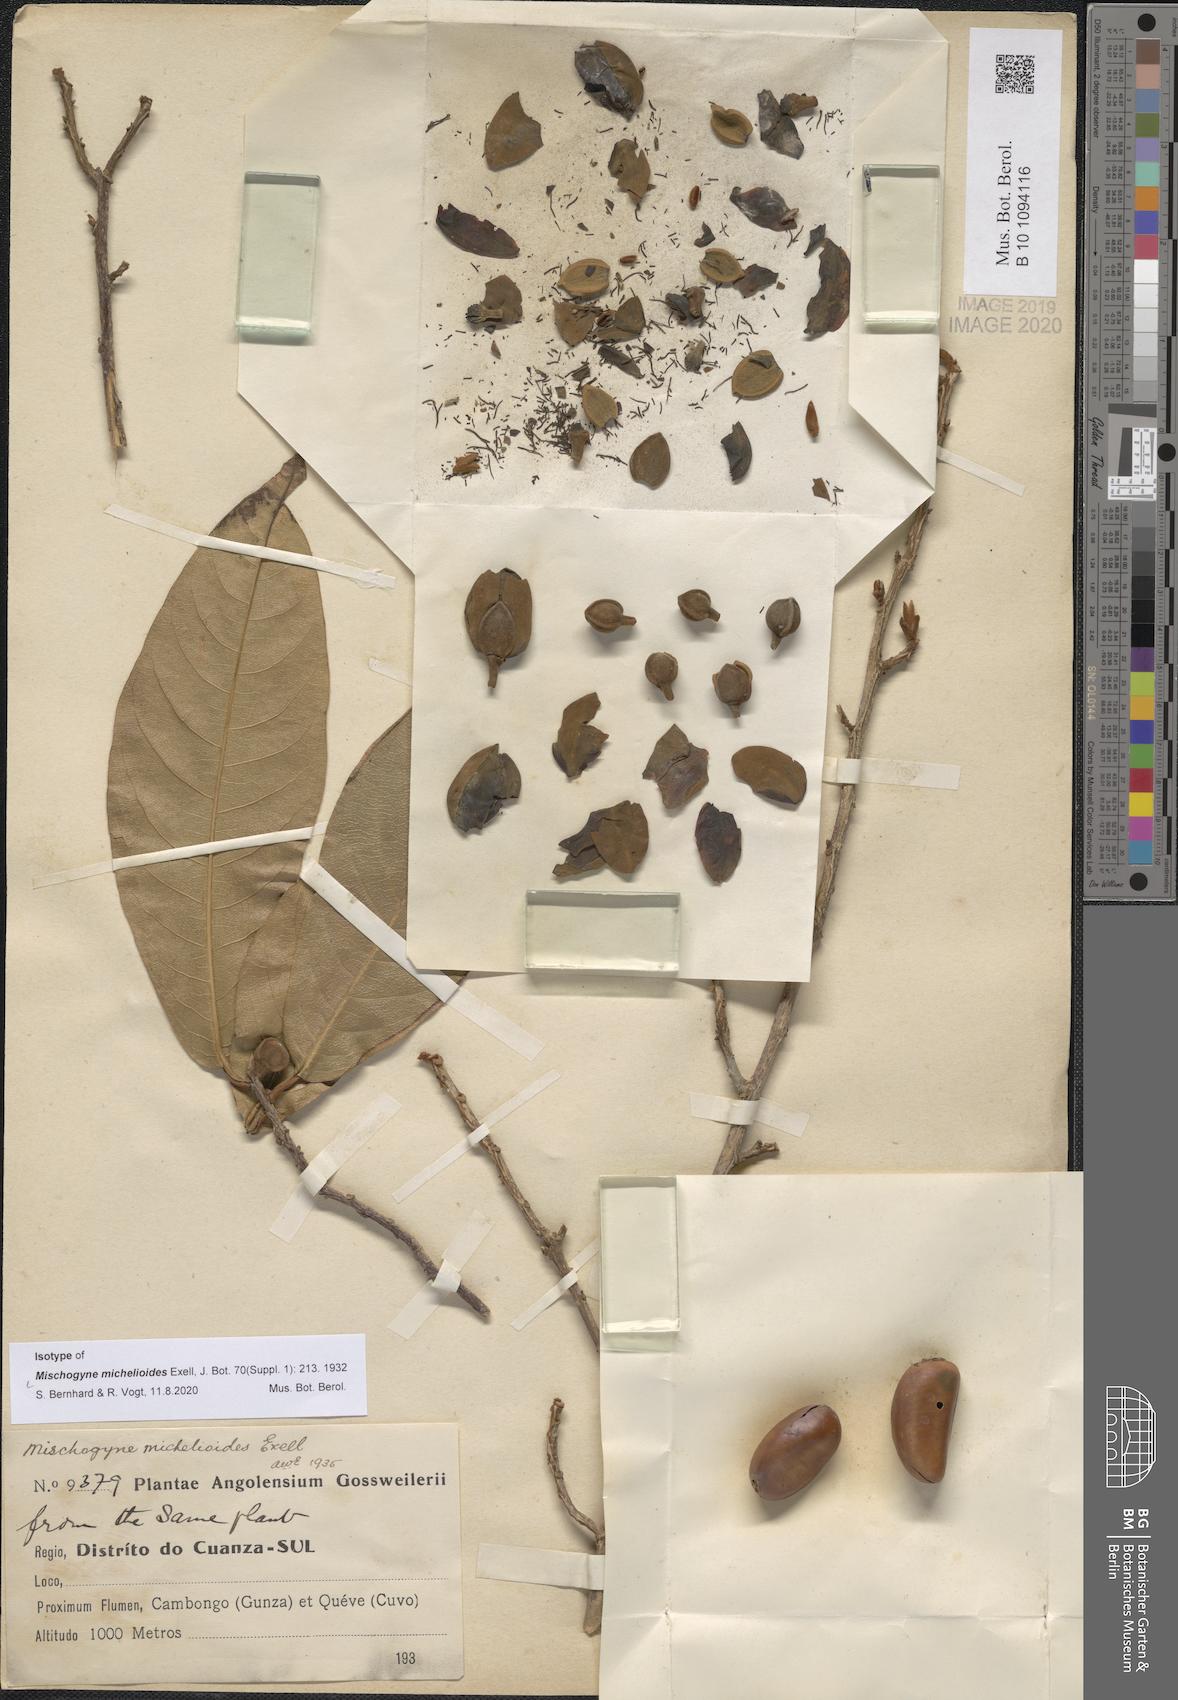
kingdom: Plantae
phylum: Tracheophyta
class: Magnoliopsida
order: Magnoliales
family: Annonaceae
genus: Mischogyne
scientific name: Mischogyne michelioides
